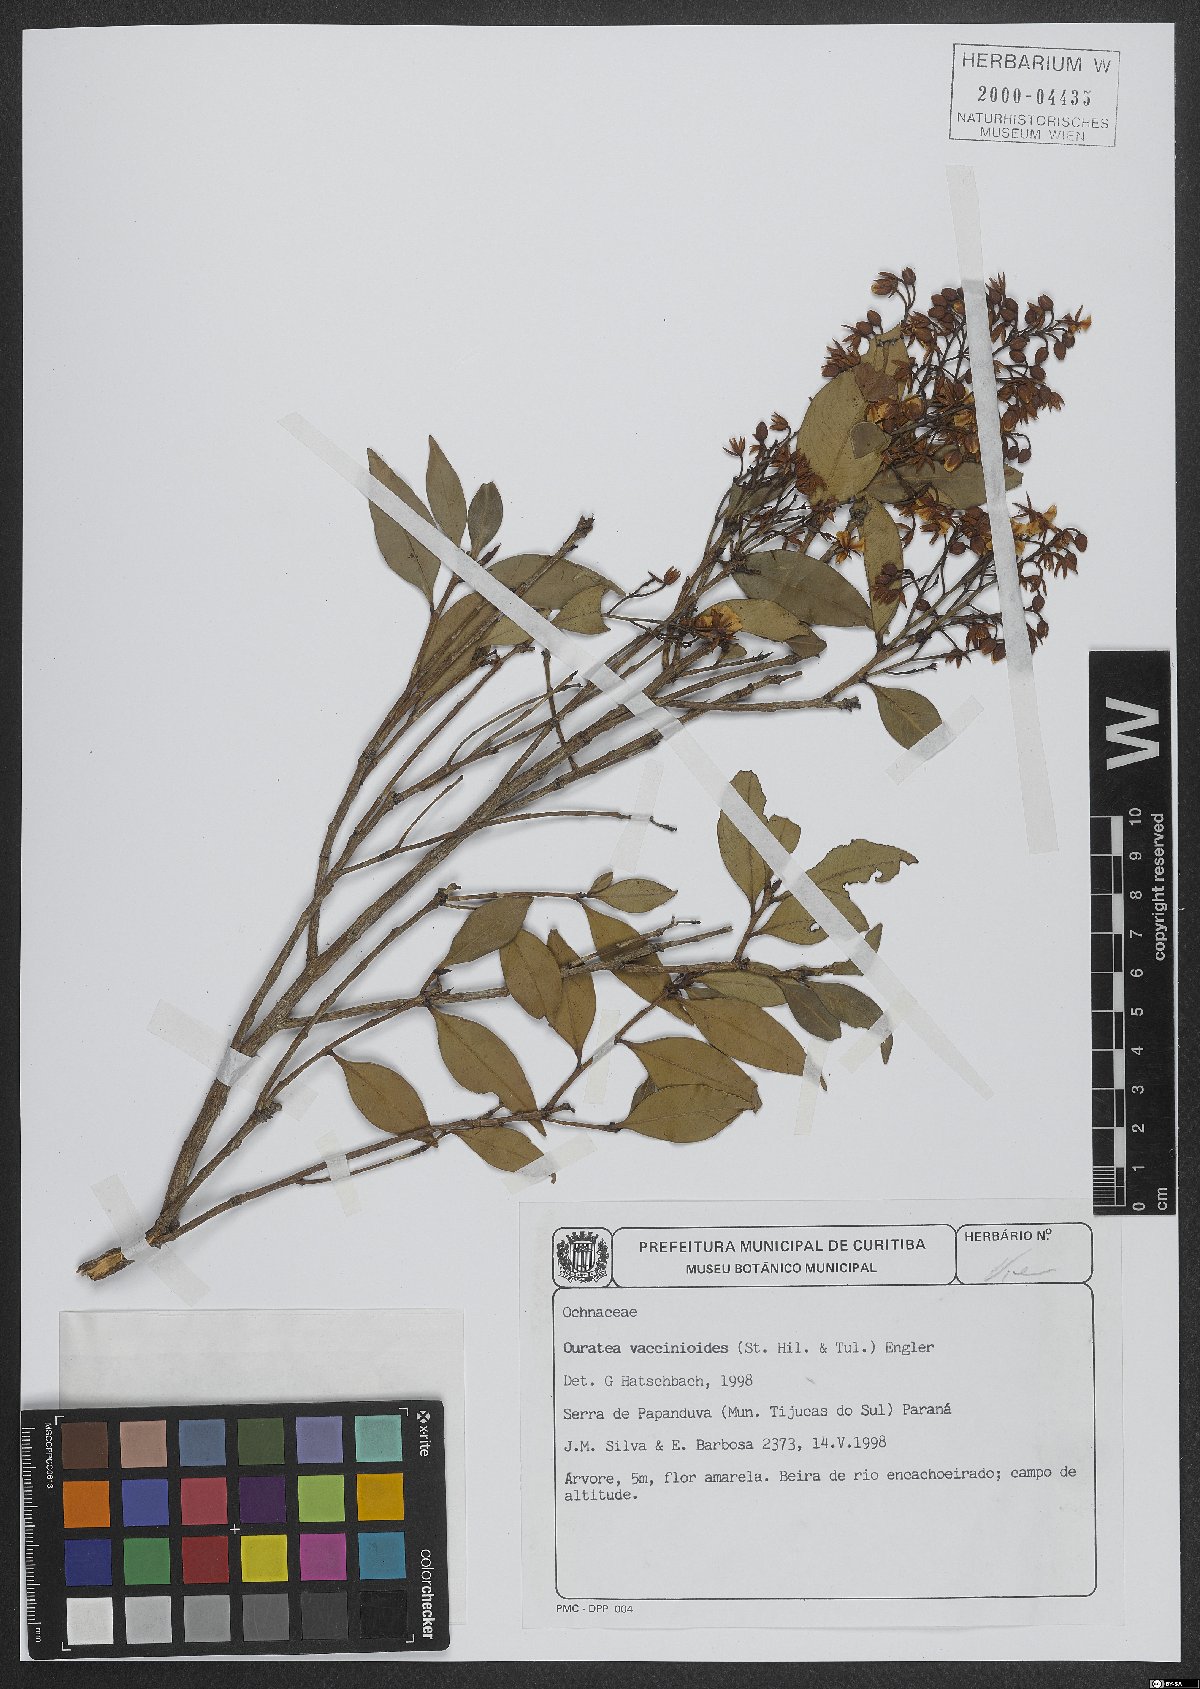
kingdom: Plantae
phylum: Tracheophyta
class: Magnoliopsida
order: Malpighiales
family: Ochnaceae
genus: Ouratea
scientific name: Ouratea vaccinioides
